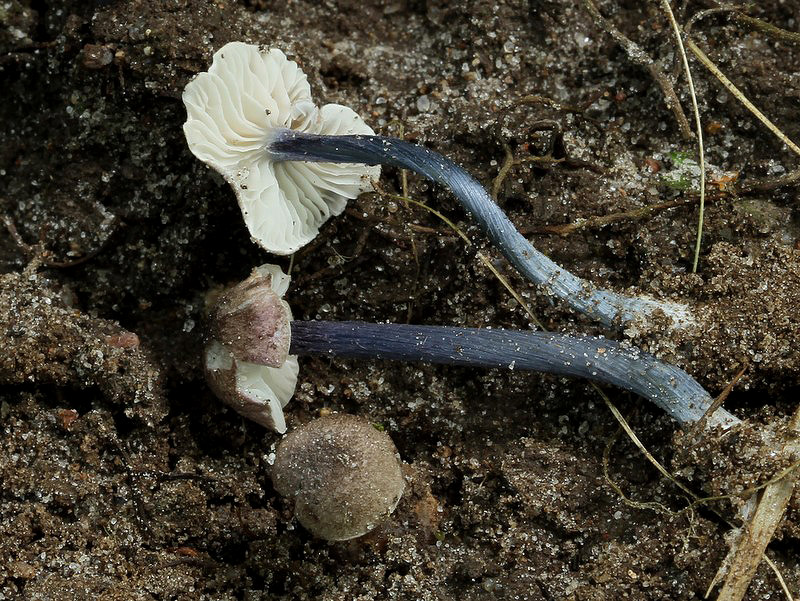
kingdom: Fungi
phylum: Basidiomycota
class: Agaricomycetes
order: Agaricales
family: Entolomataceae
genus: Entoloma
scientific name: Entoloma lampropus
